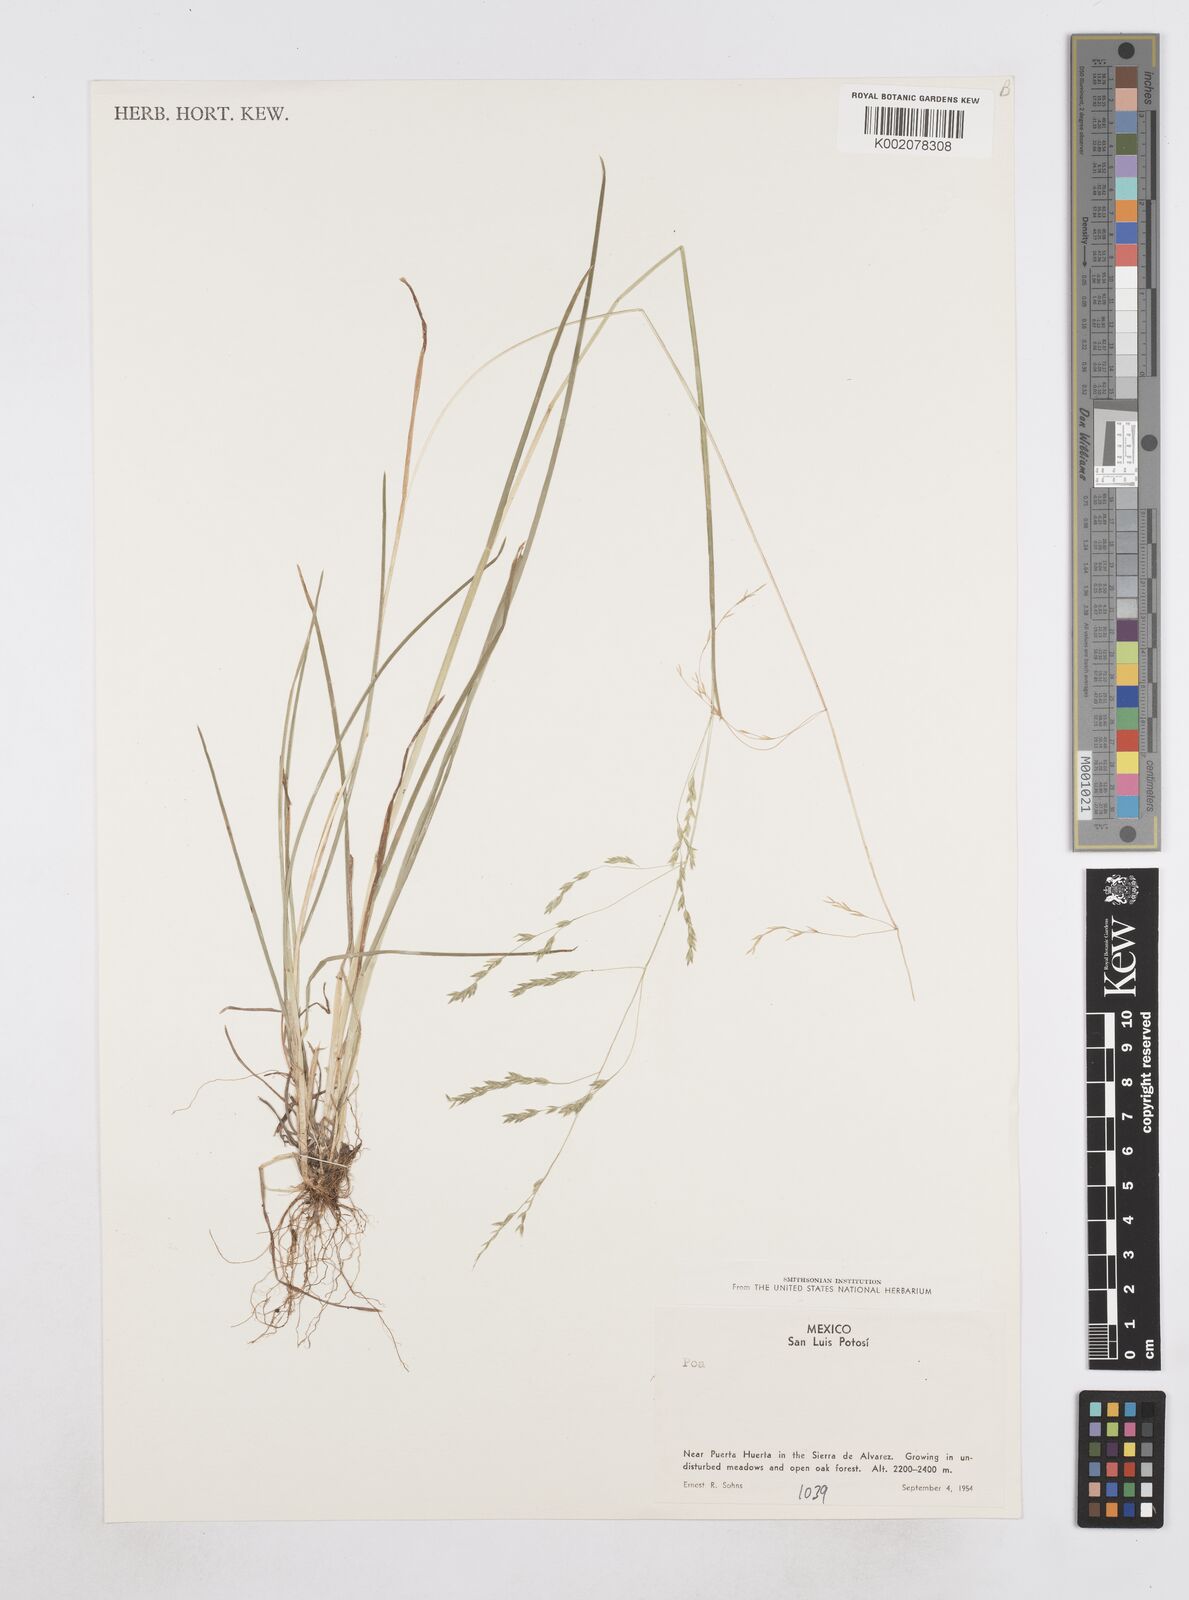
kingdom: Plantae
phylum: Tracheophyta
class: Liliopsida
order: Poales
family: Poaceae
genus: Poa
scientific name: Poa
